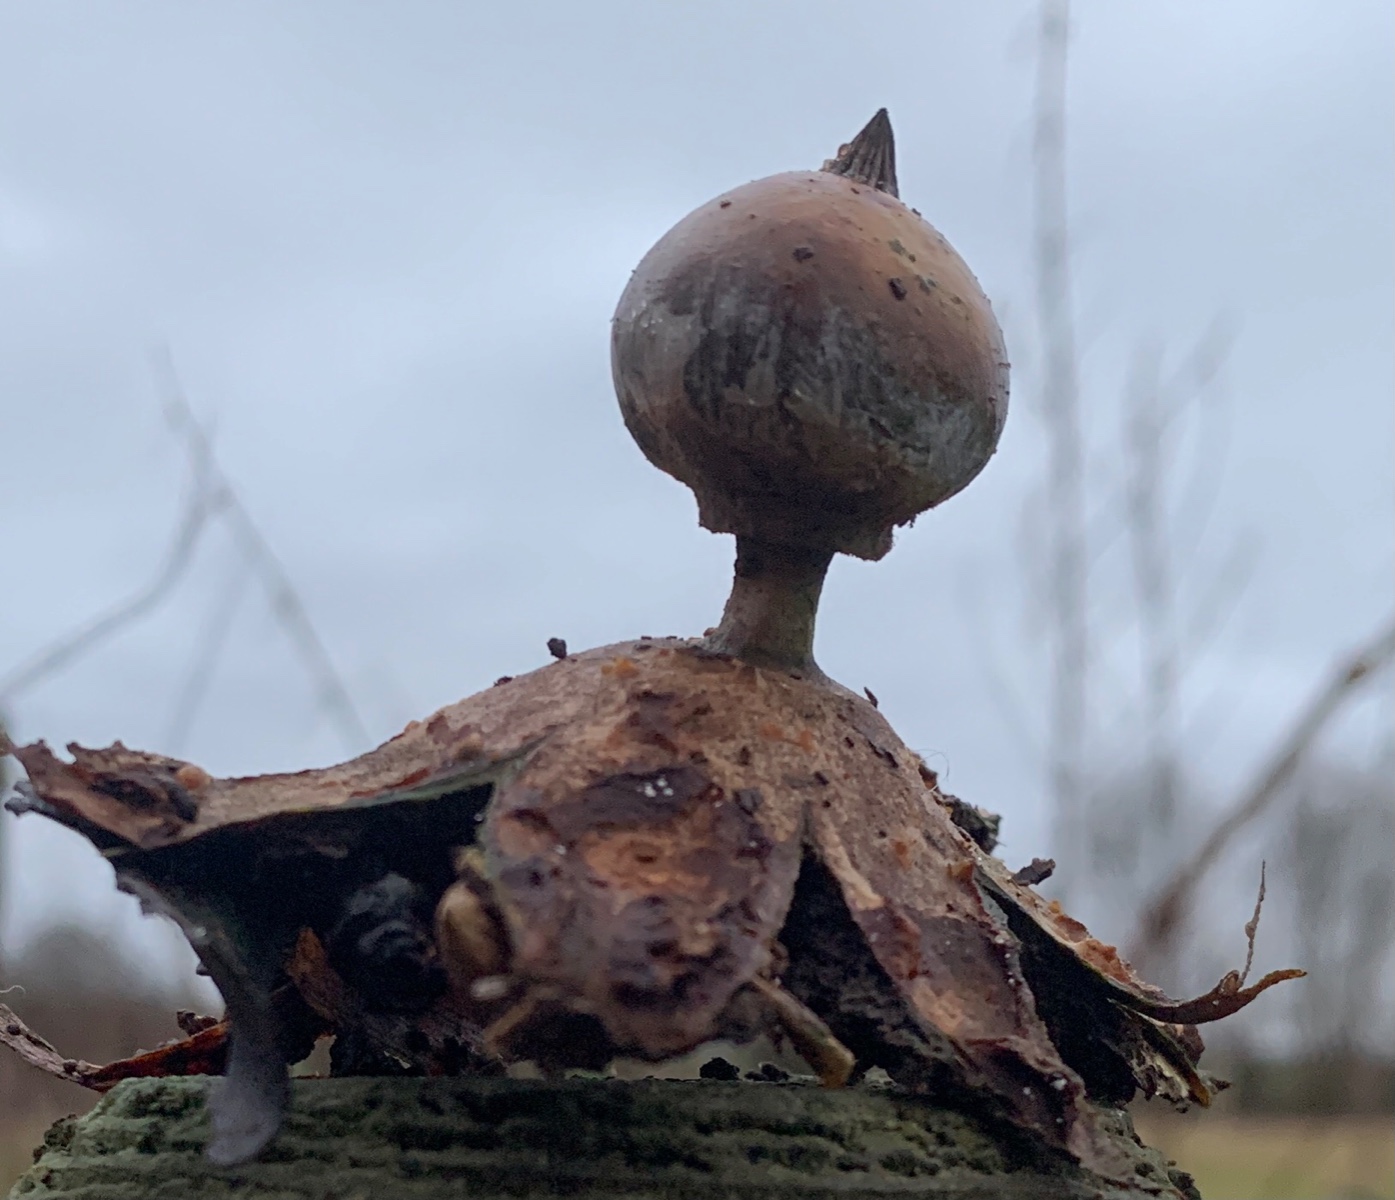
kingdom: Fungi
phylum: Basidiomycota
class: Agaricomycetes
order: Geastrales
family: Geastraceae
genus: Geastrum
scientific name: Geastrum striatum
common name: krave-stjernebold
